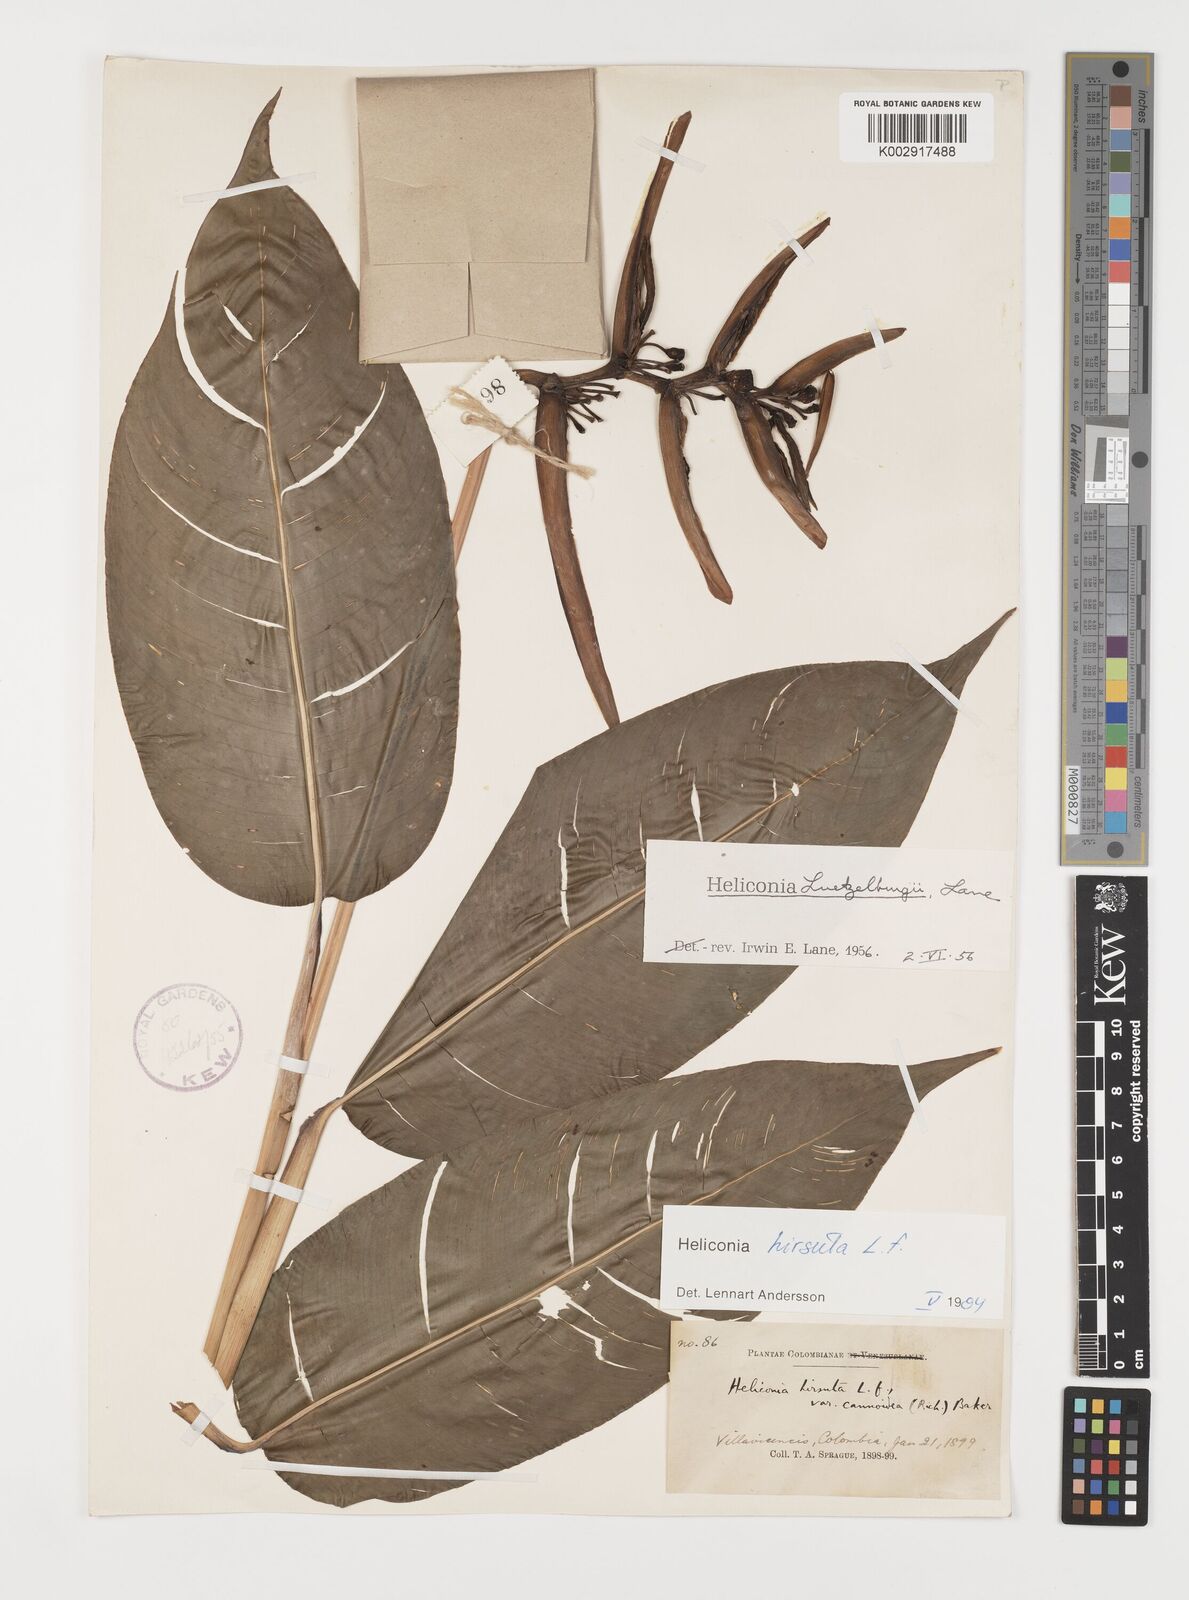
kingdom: Plantae
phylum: Tracheophyta
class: Liliopsida
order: Zingiberales
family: Heliconiaceae
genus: Heliconia
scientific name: Heliconia schiedeana
